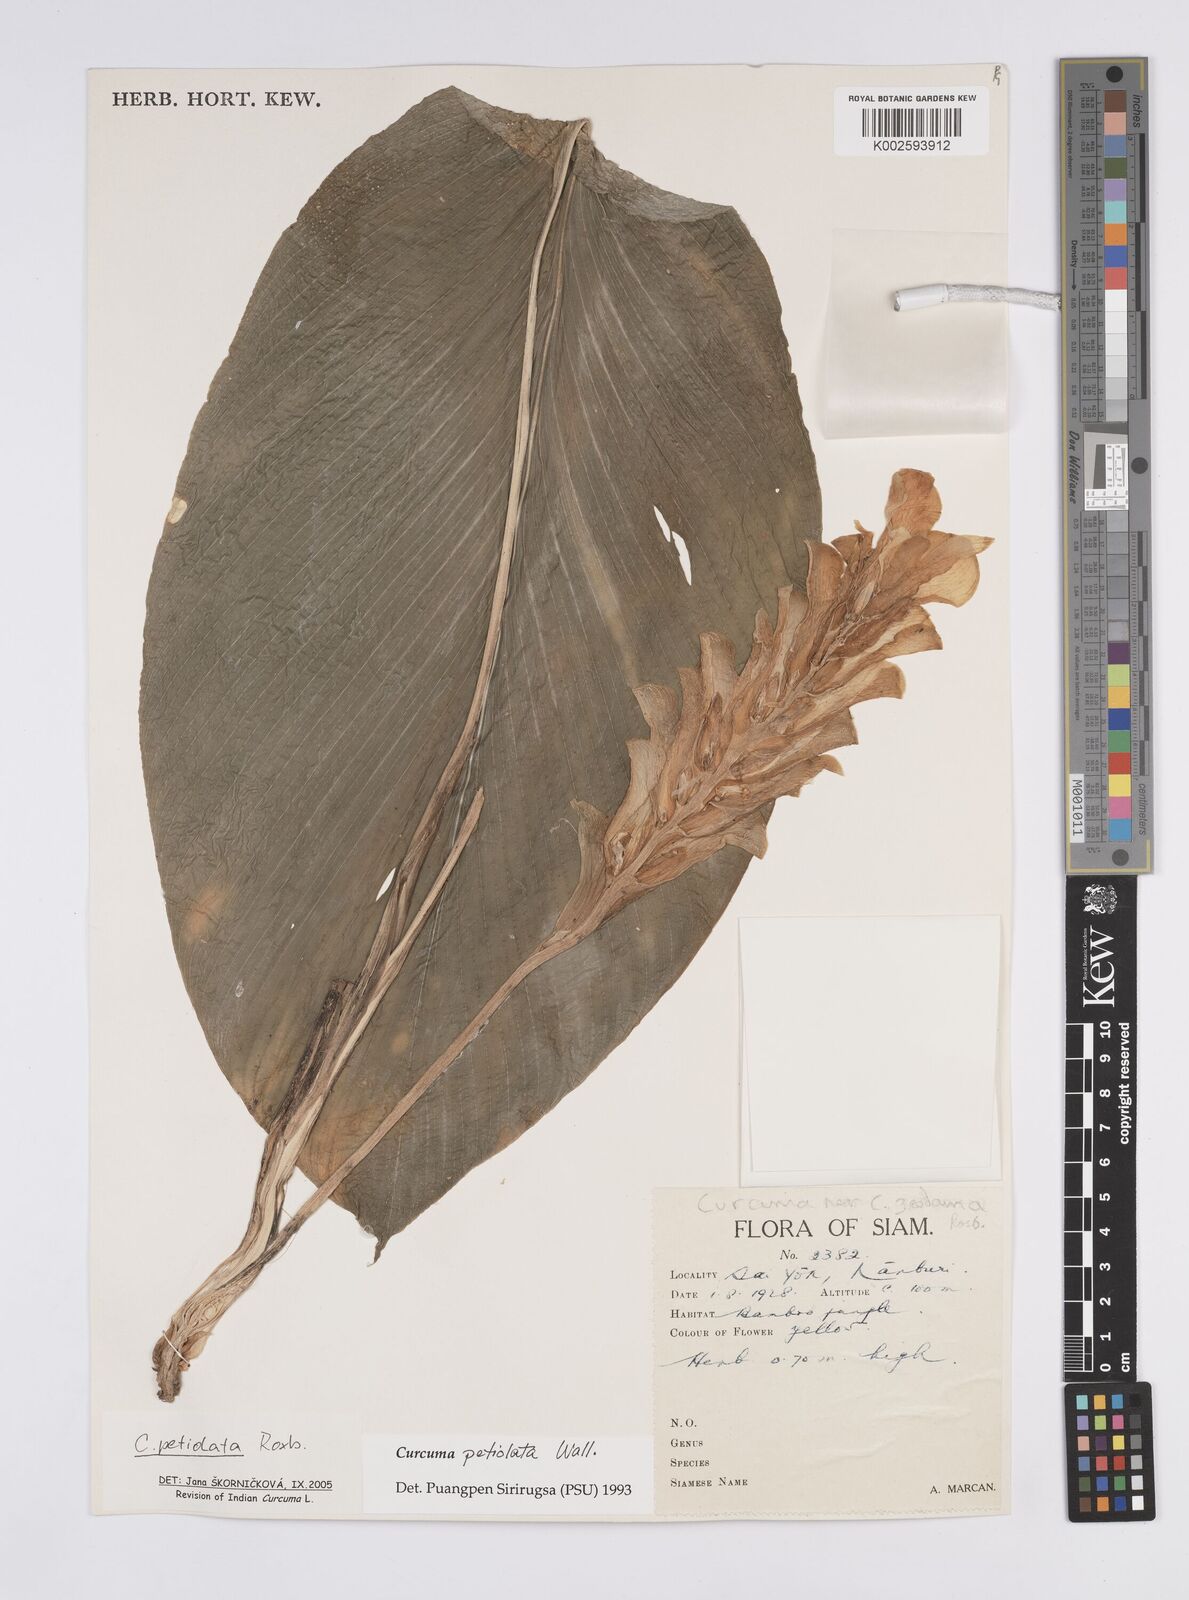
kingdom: Plantae
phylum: Tracheophyta
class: Liliopsida
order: Zingiberales
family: Zingiberaceae
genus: Curcuma
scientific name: Curcuma petiolata
